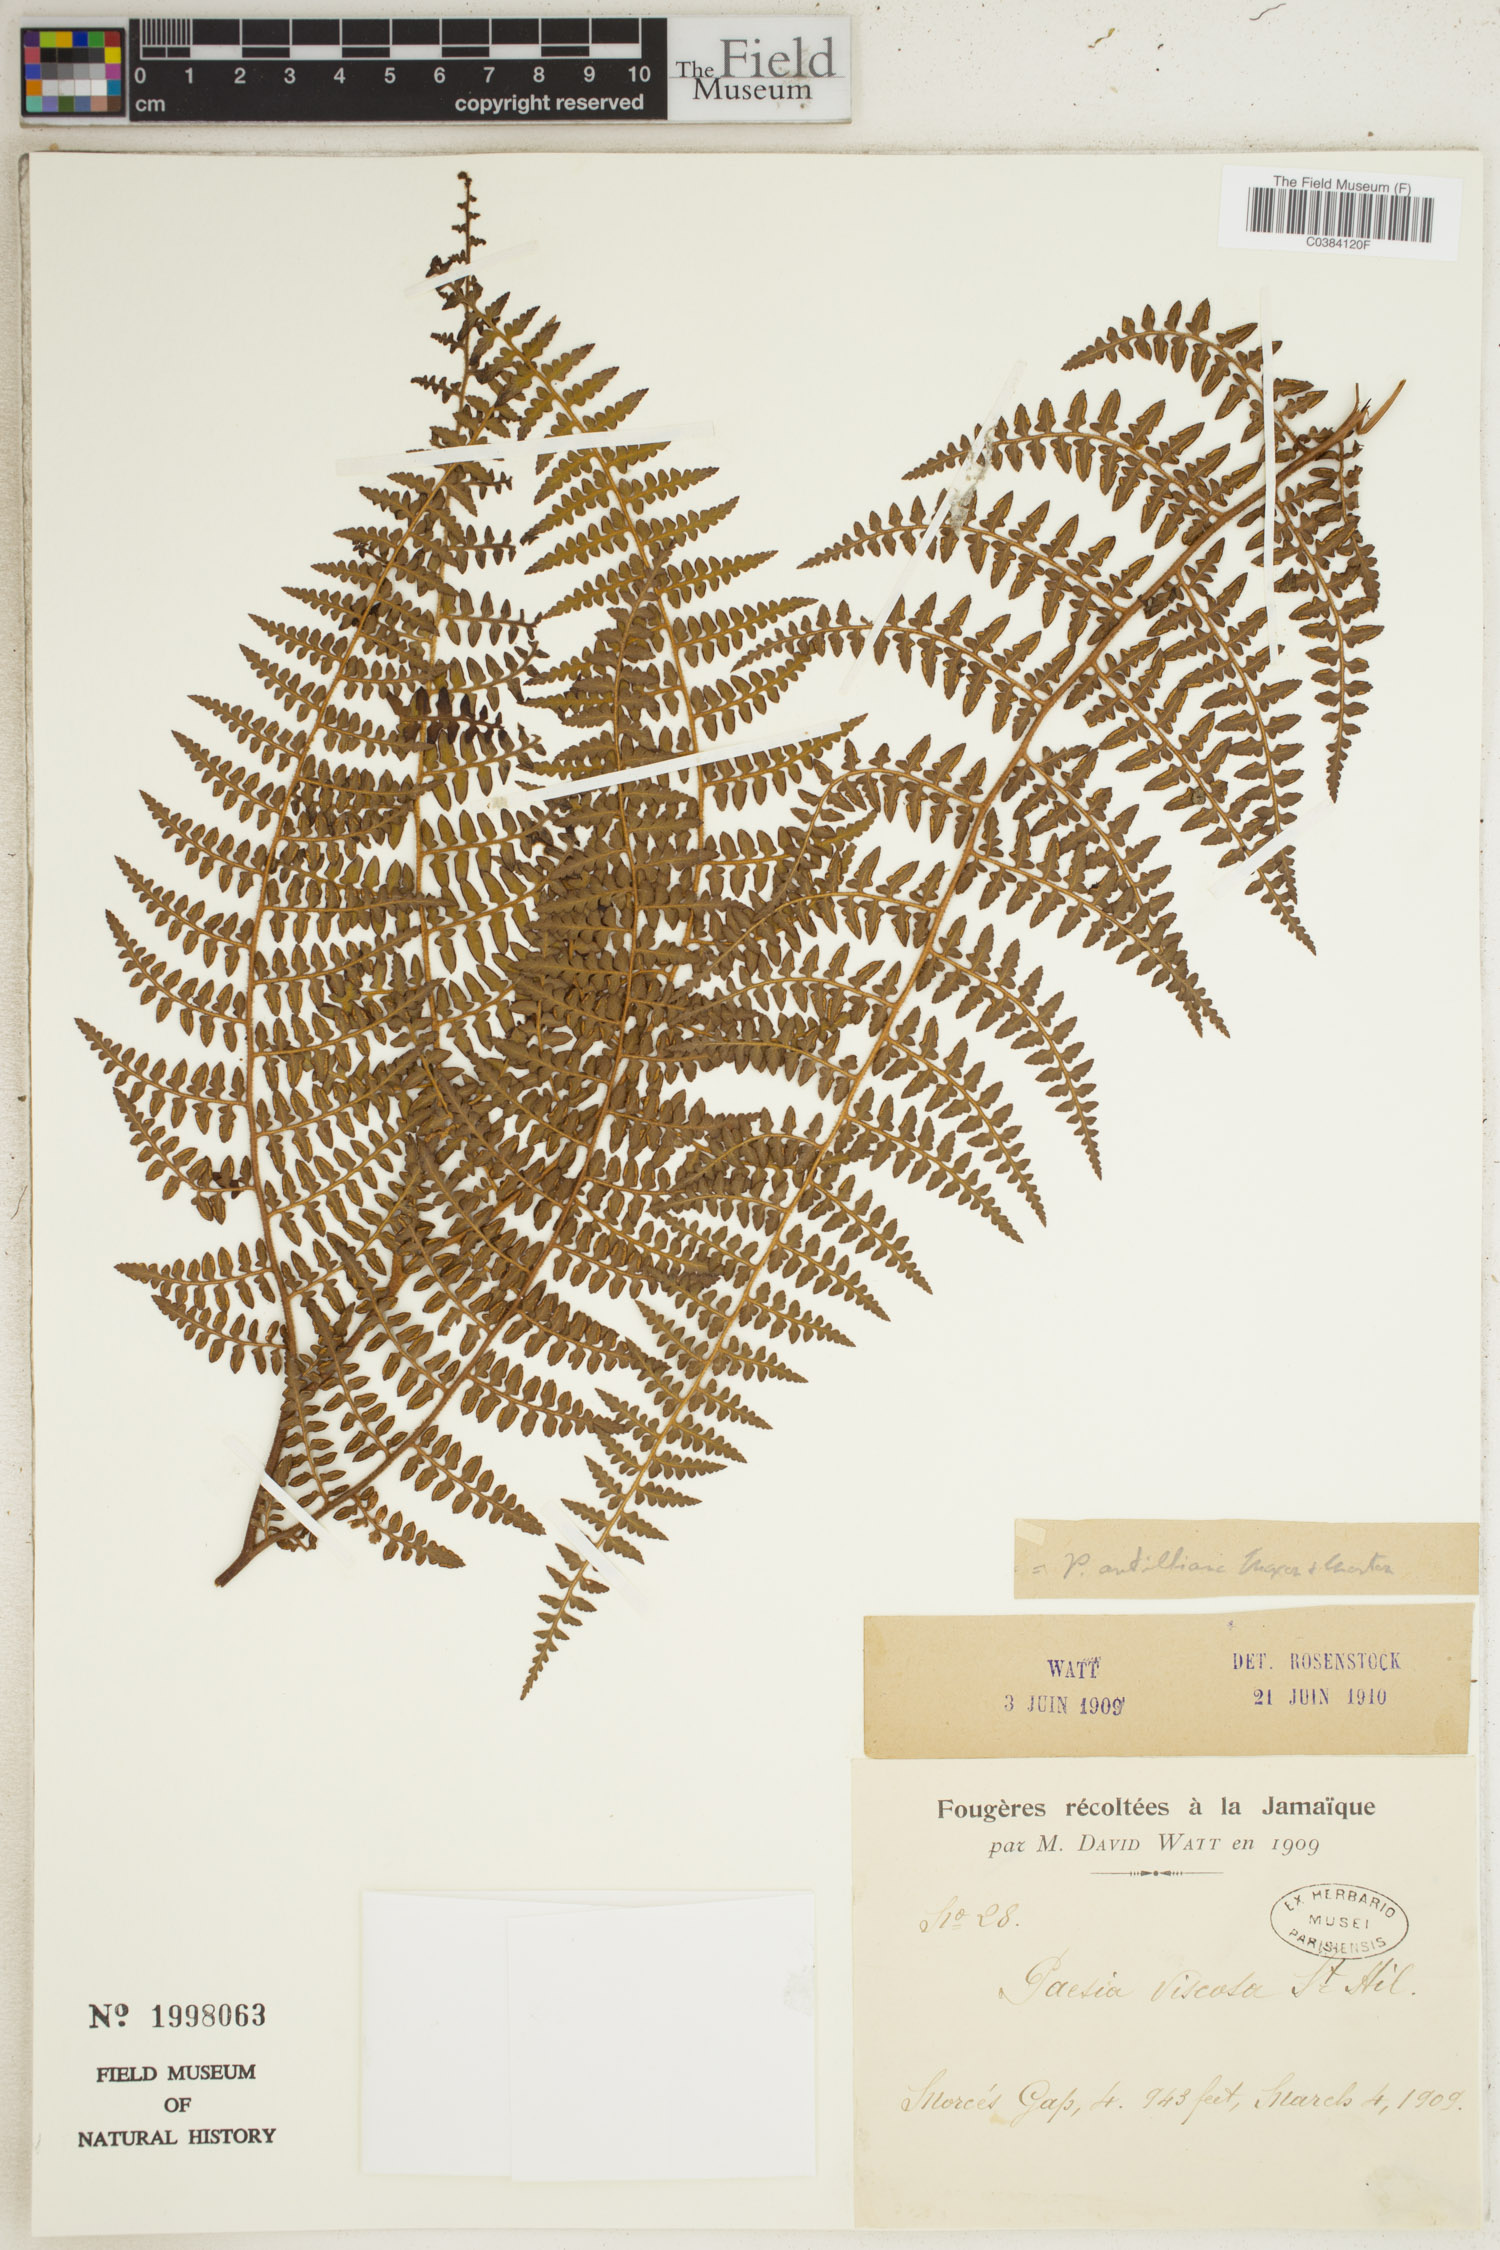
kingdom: Plantae
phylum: Tracheophyta
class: Polypodiopsida
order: Polypodiales
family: Dennstaedtiaceae
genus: Paesia
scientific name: Paesia glandulosa
